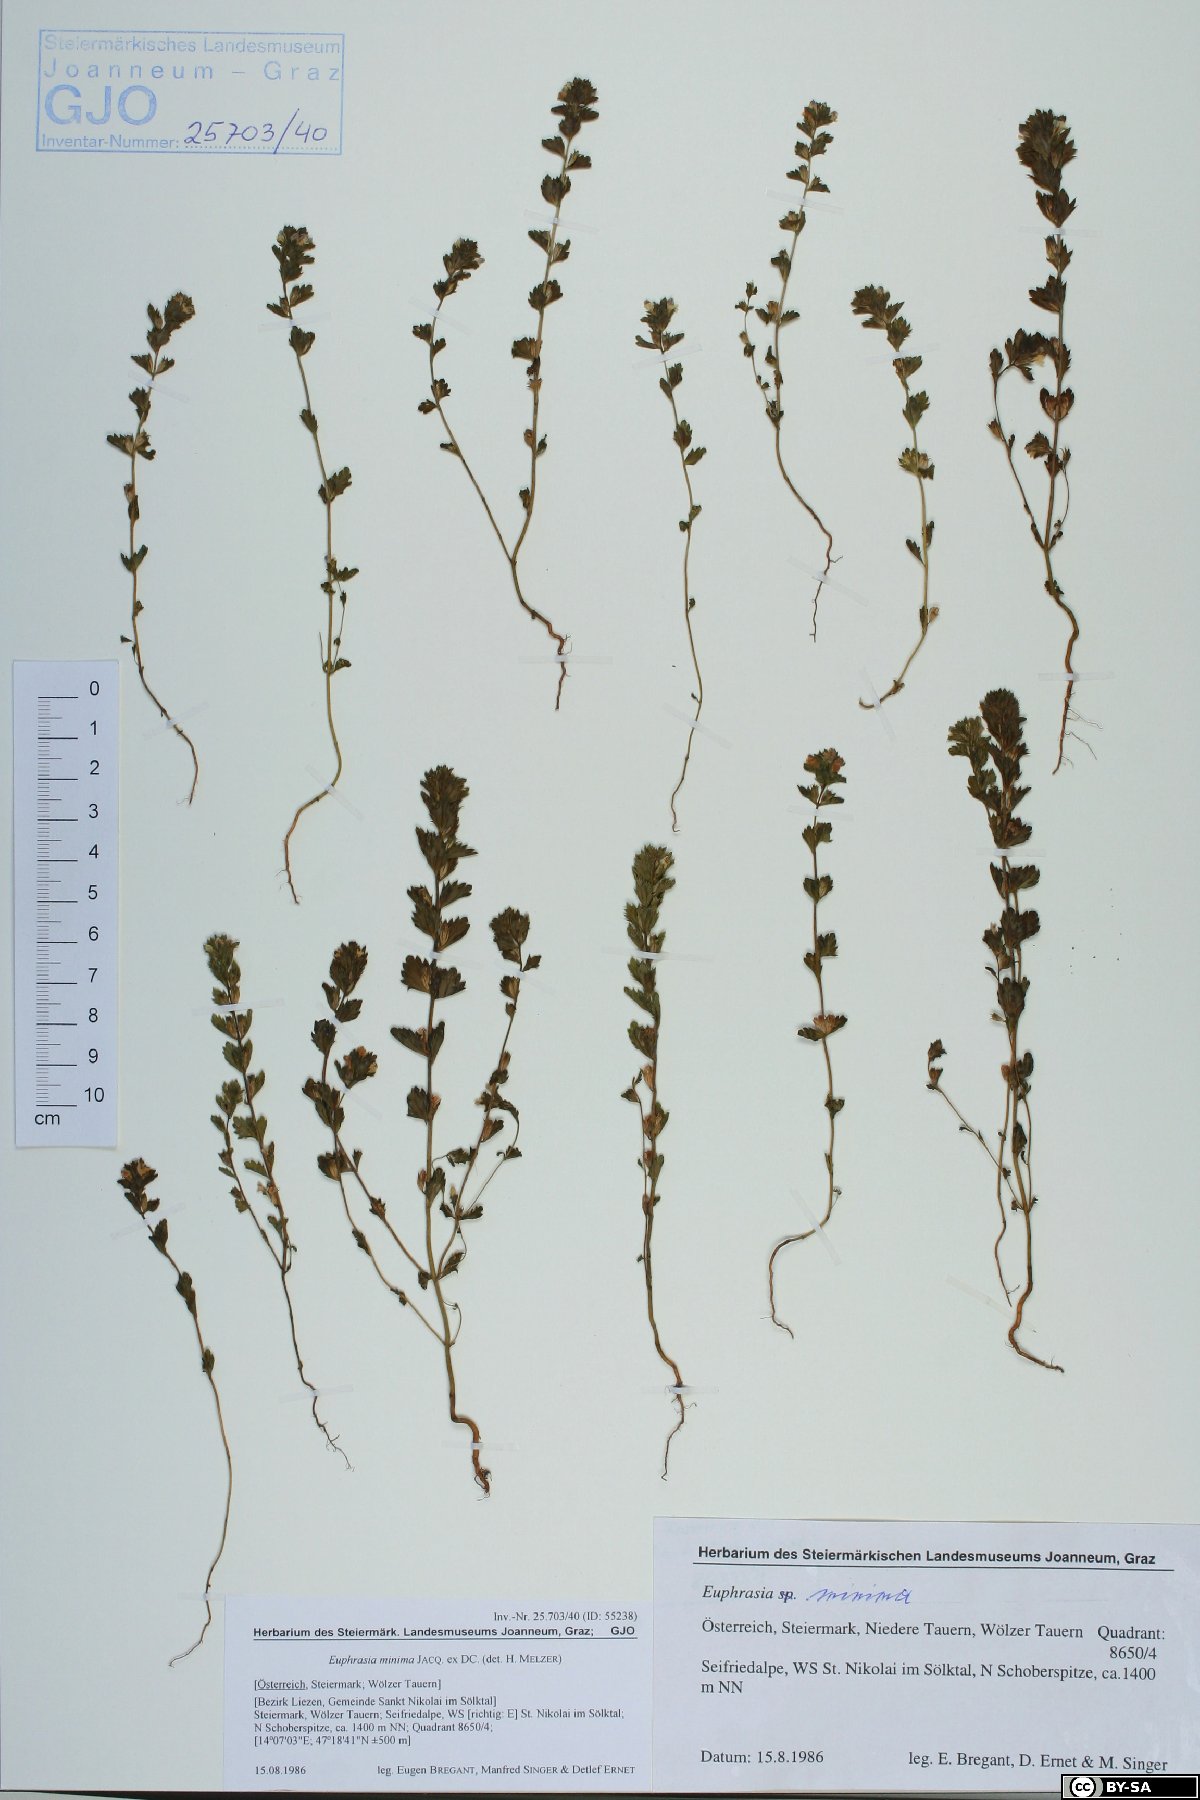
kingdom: Plantae
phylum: Tracheophyta
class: Magnoliopsida
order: Lamiales
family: Orobanchaceae
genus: Euphrasia
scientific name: Euphrasia minima
